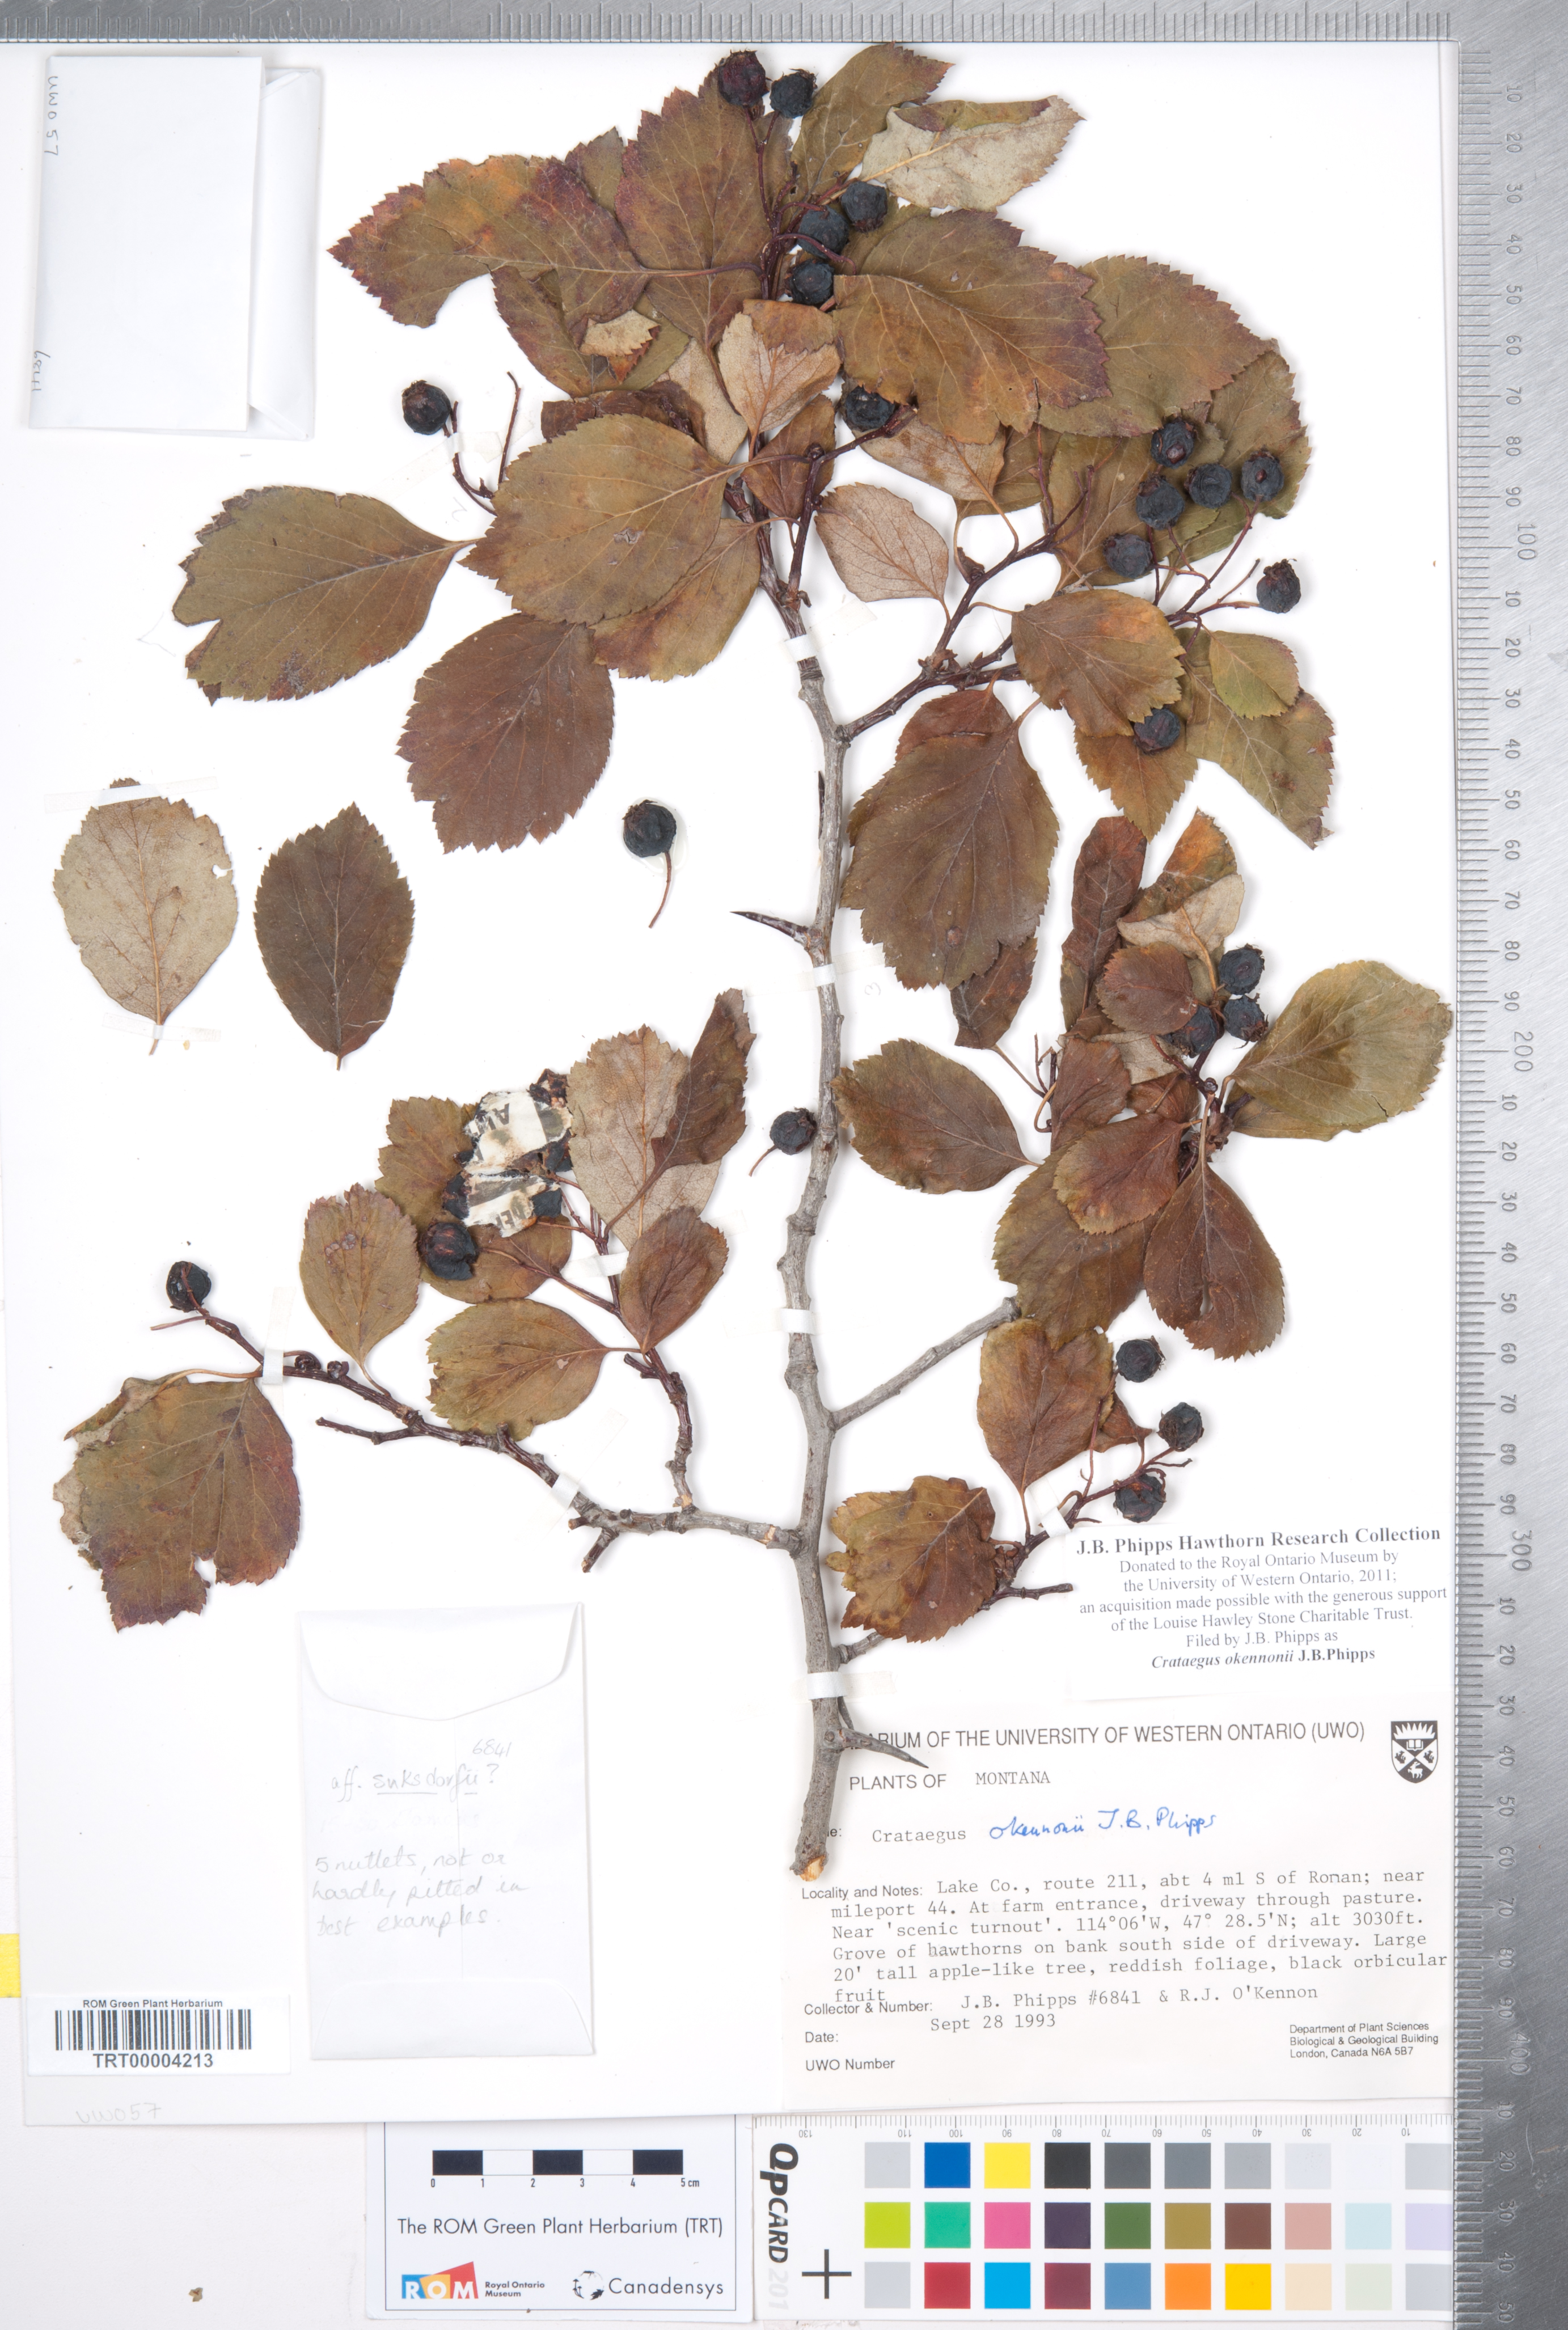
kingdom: Plantae
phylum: Tracheophyta
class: Magnoliopsida
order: Rosales
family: Rosaceae
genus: Crataegus
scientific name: Crataegus okennonii
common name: O'kennon's hawthorn
